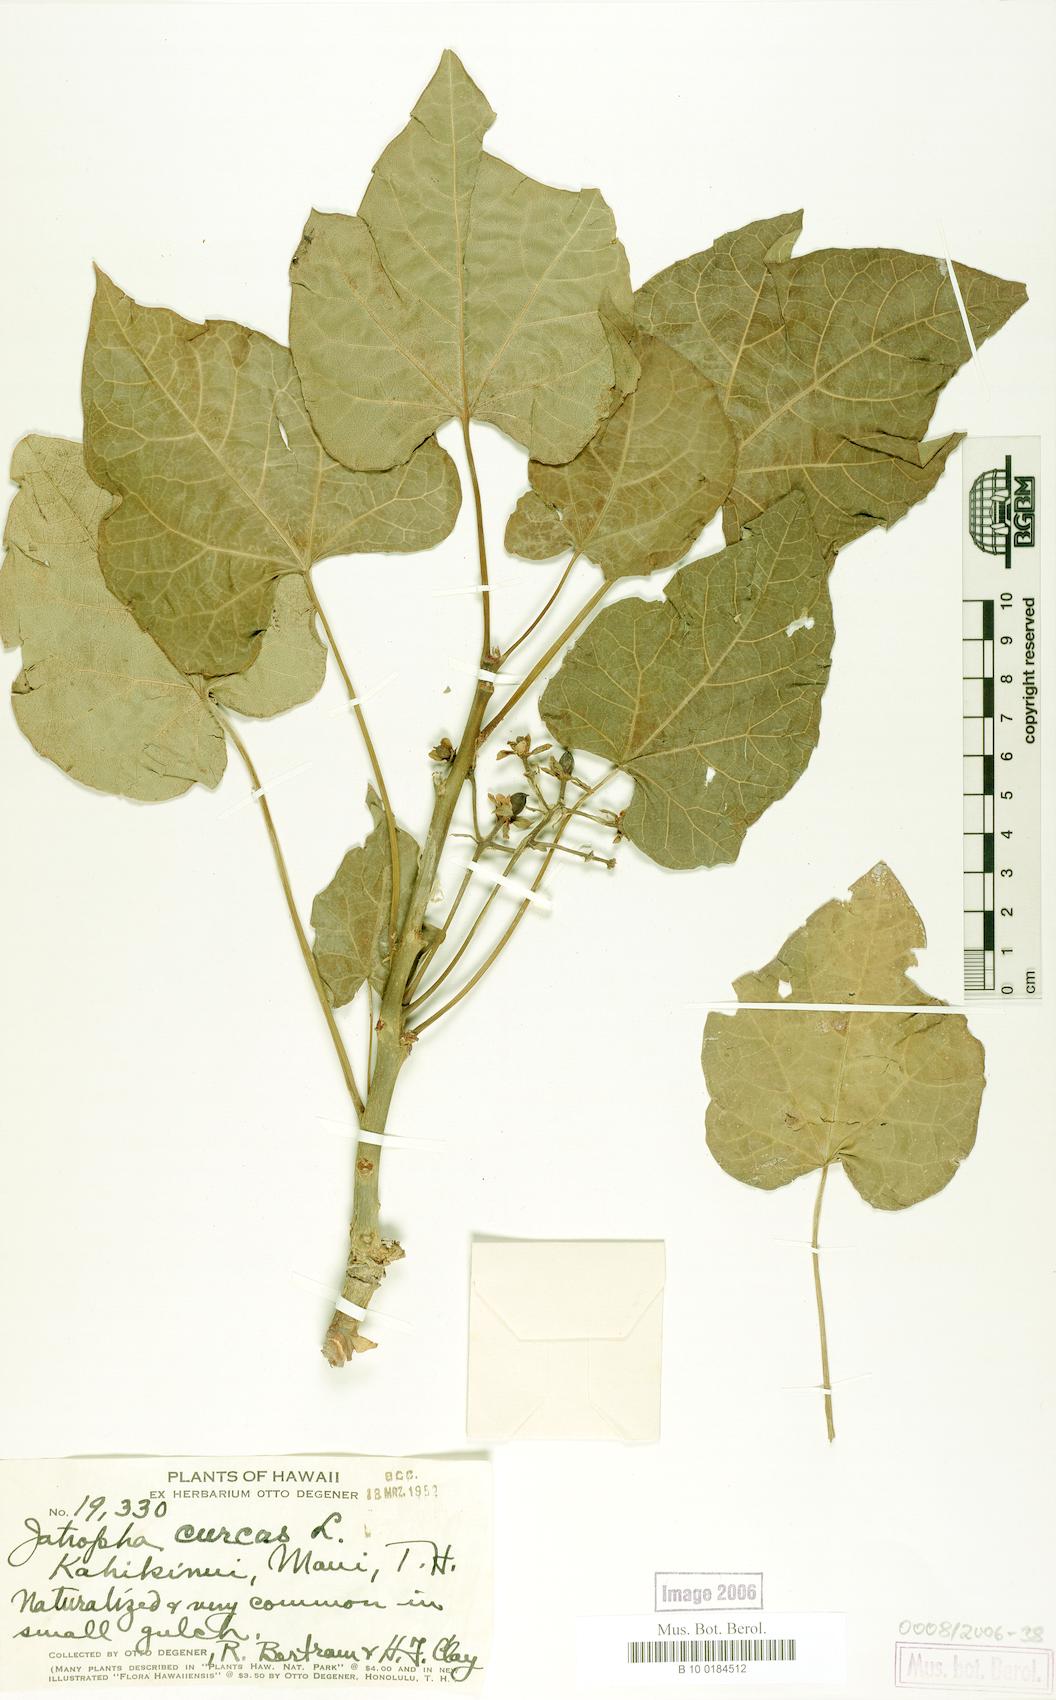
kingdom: Plantae
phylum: Tracheophyta
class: Magnoliopsida
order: Malpighiales
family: Euphorbiaceae
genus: Jatropha
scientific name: Jatropha curcas
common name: Barbados nut
